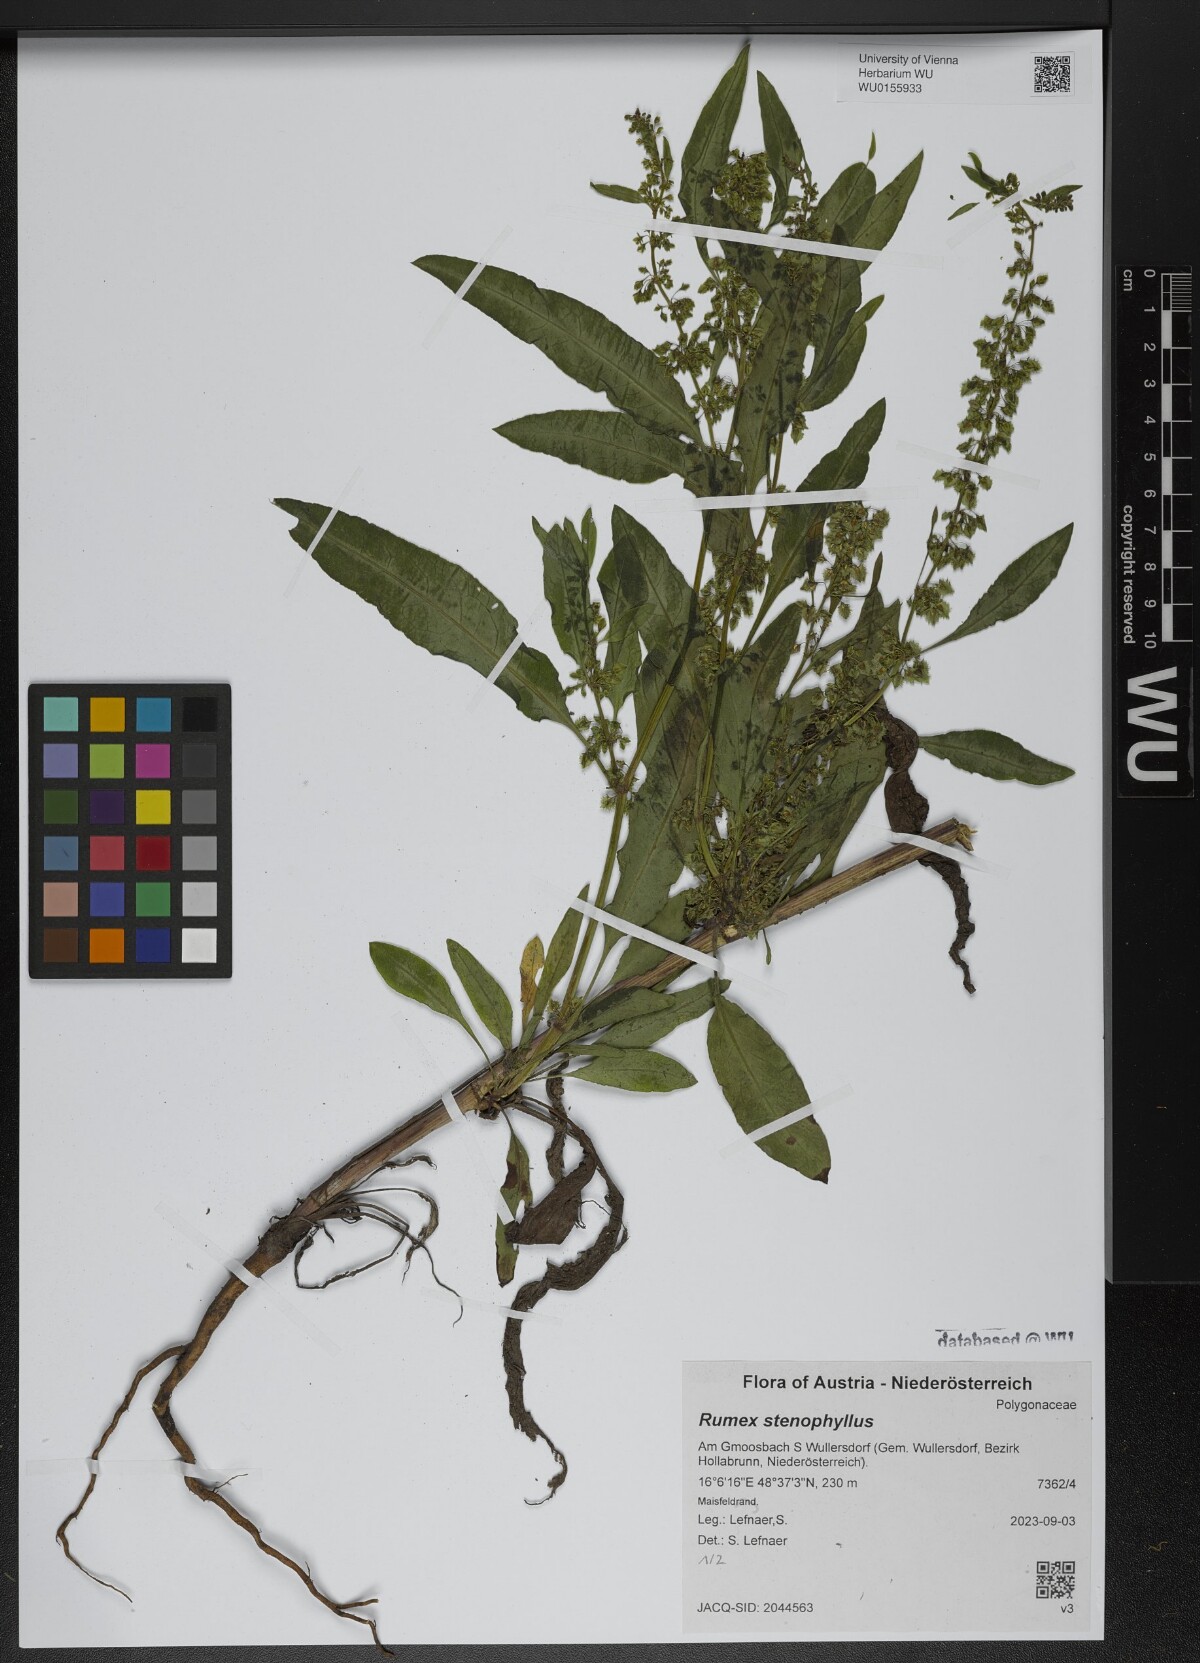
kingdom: Plantae
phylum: Tracheophyta
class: Magnoliopsida
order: Caryophyllales
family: Polygonaceae
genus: Rumex
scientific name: Rumex stenophyllus
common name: Narrowleaf dock
